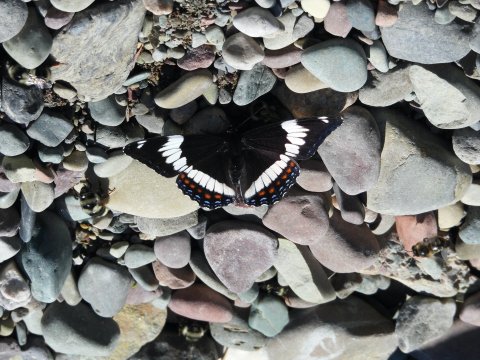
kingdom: Animalia
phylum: Arthropoda
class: Insecta
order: Lepidoptera
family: Nymphalidae
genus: Limenitis
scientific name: Limenitis arthemis
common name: Red-spotted Admiral
